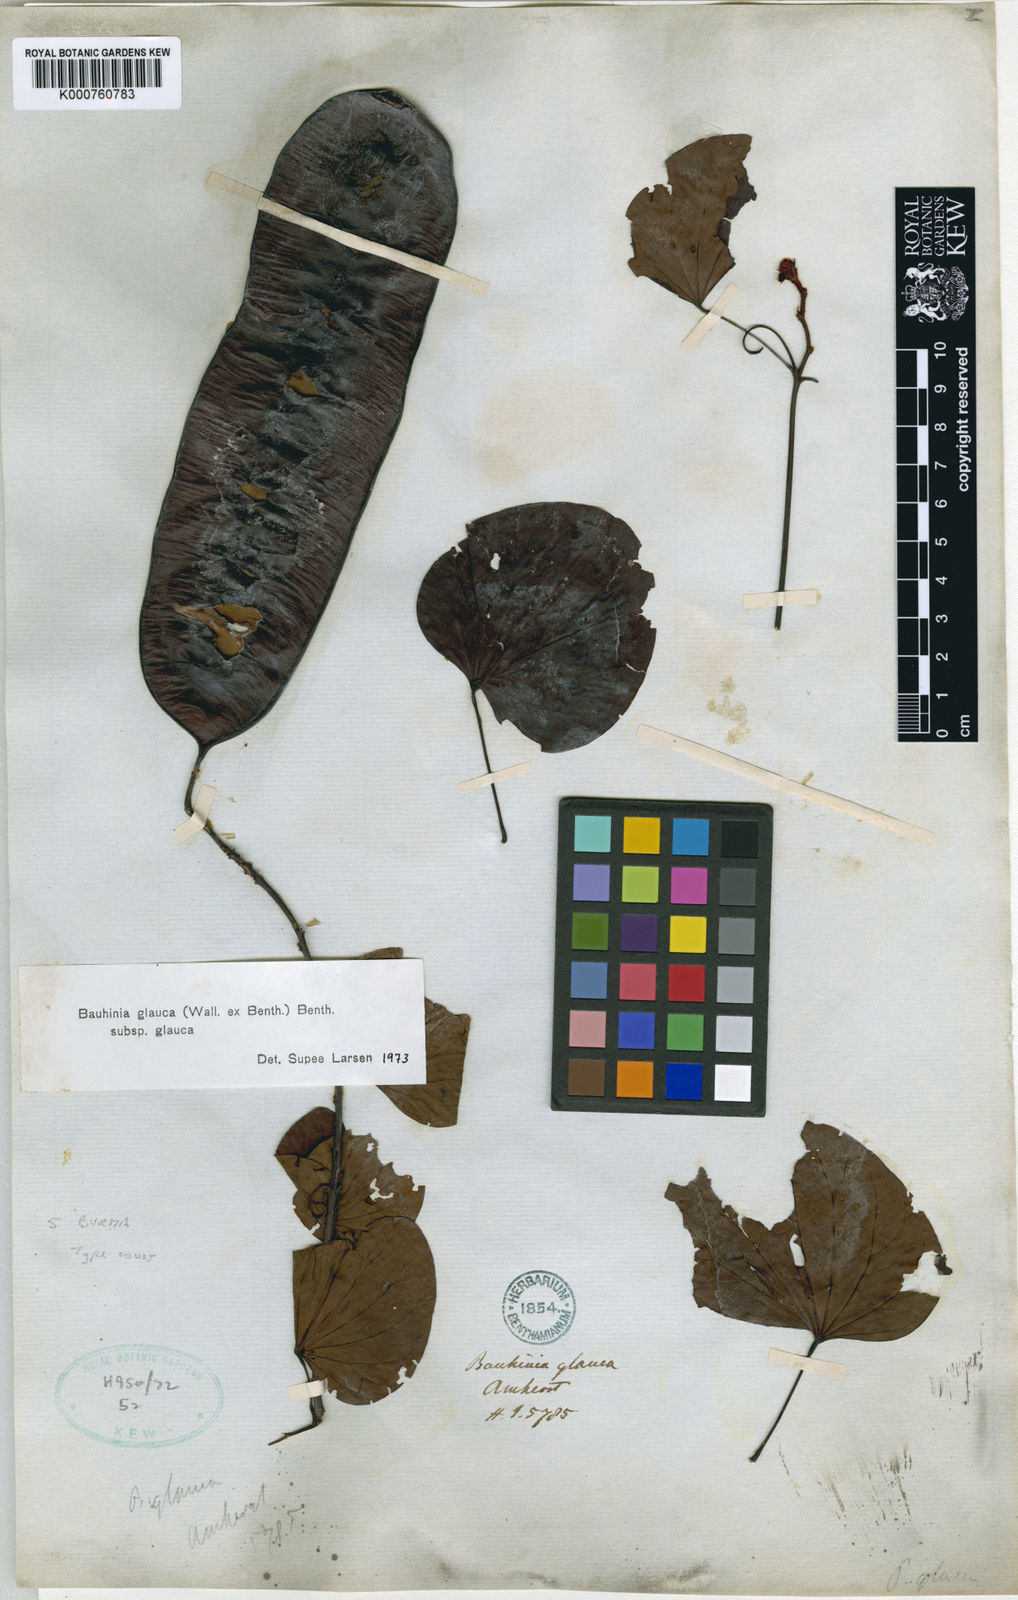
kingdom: Plantae
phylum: Tracheophyta
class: Magnoliopsida
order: Fabales
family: Fabaceae
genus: Cheniella
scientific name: Cheniella glauca
